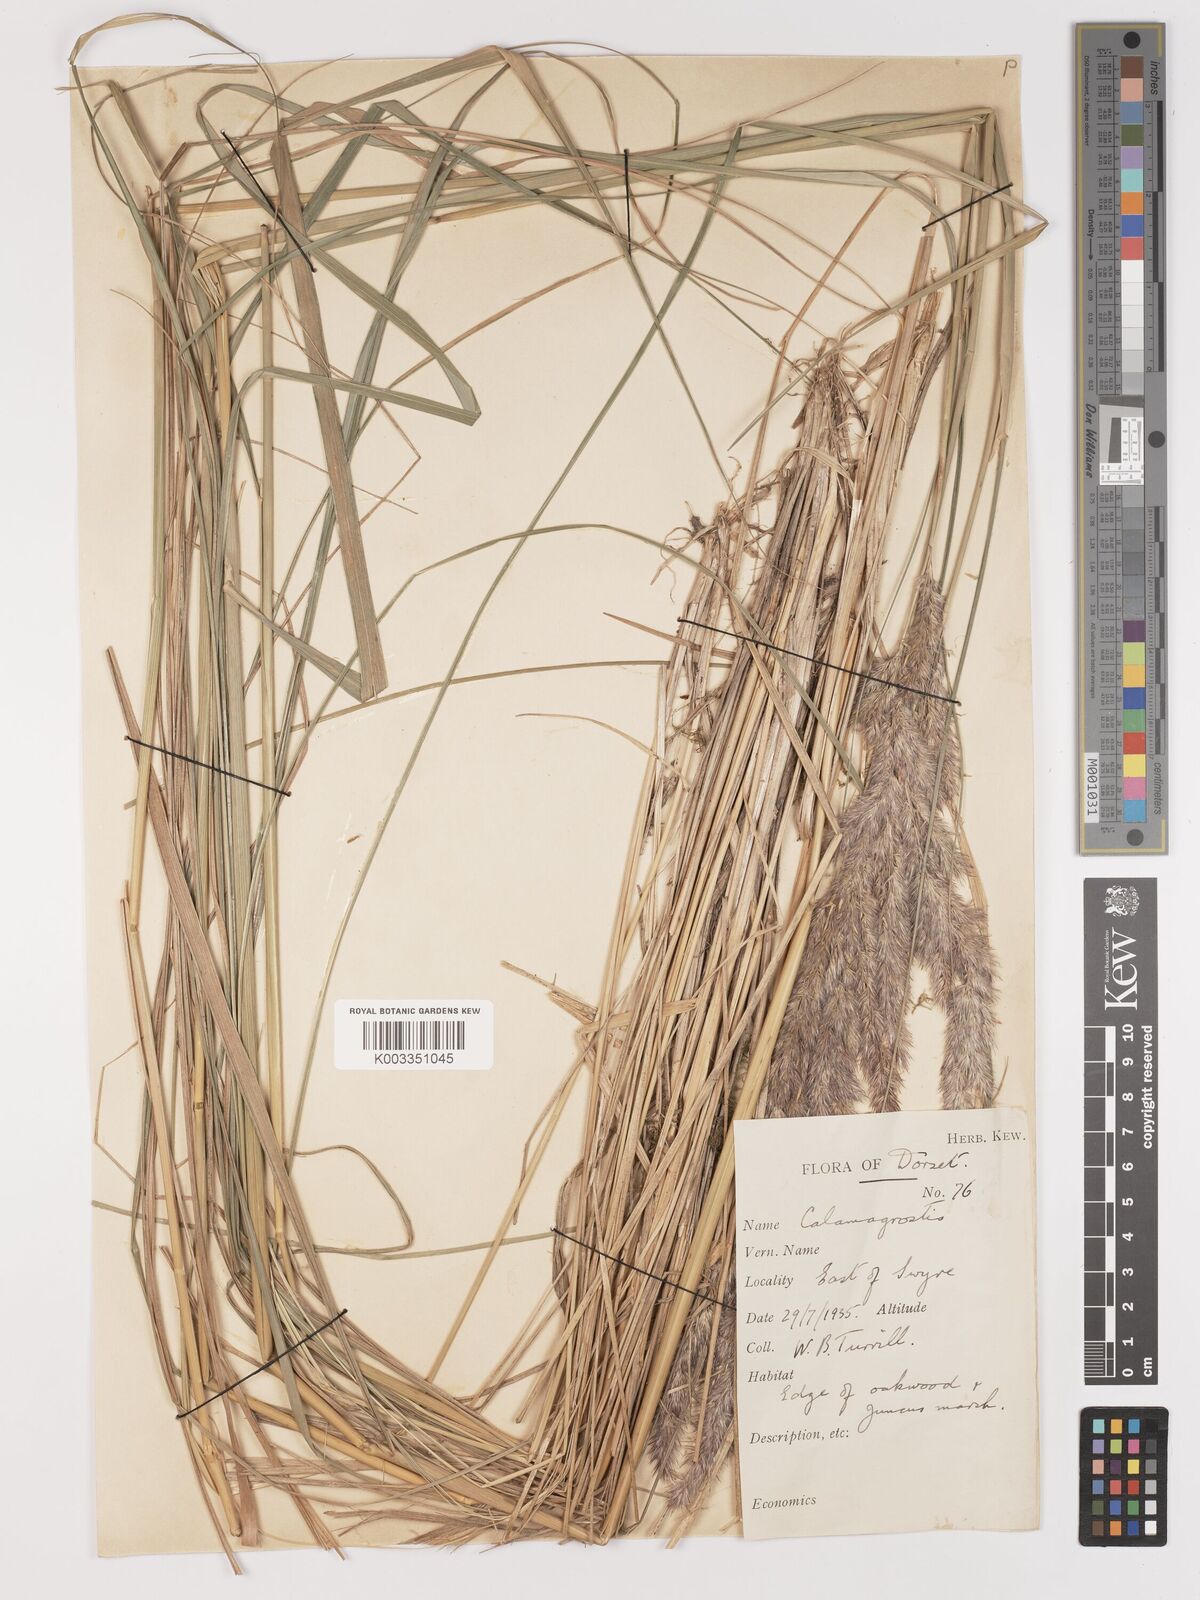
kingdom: Plantae
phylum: Tracheophyta
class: Liliopsida
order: Poales
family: Poaceae
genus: Calamagrostis
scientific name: Calamagrostis epigejos
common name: Wood small-reed
